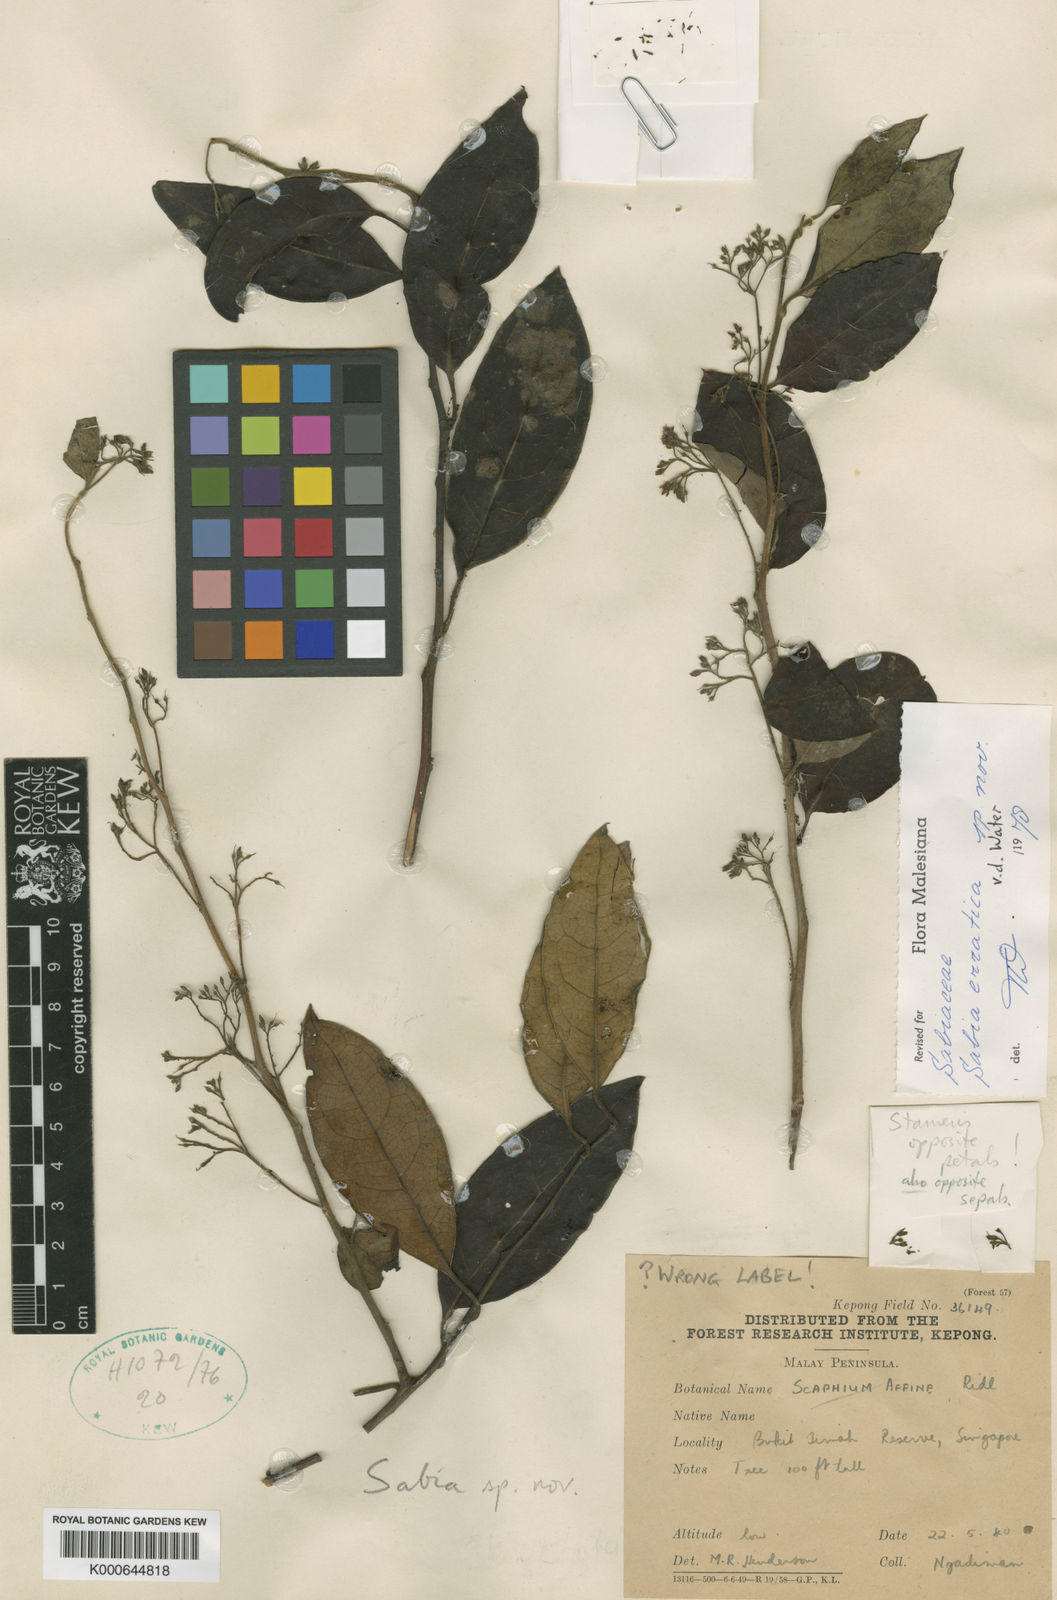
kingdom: Plantae
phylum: Tracheophyta
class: Magnoliopsida
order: Proteales
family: Sabiaceae
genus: Sabia
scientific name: Sabia erratica
